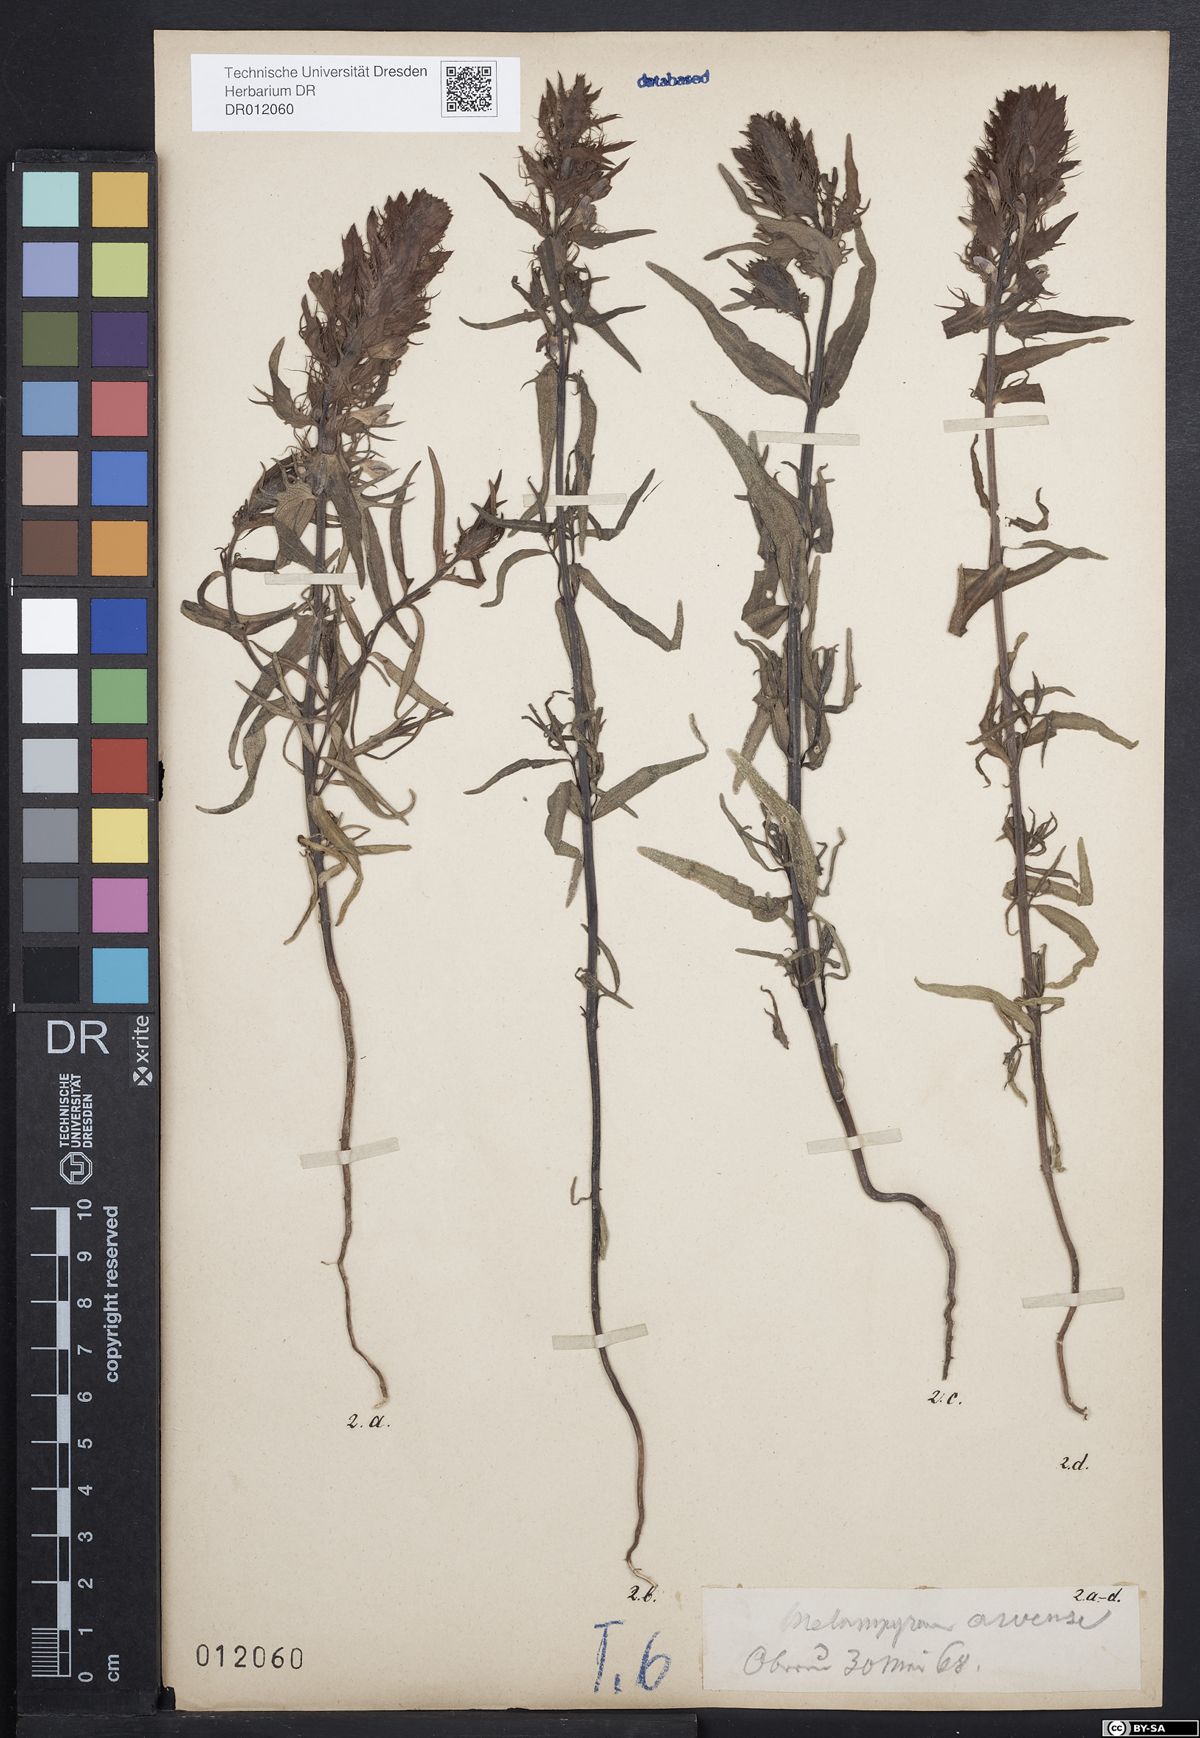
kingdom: Plantae
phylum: Tracheophyta
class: Magnoliopsida
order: Lamiales
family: Orobanchaceae
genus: Melampyrum
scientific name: Melampyrum arvense
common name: Field cow-wheat
